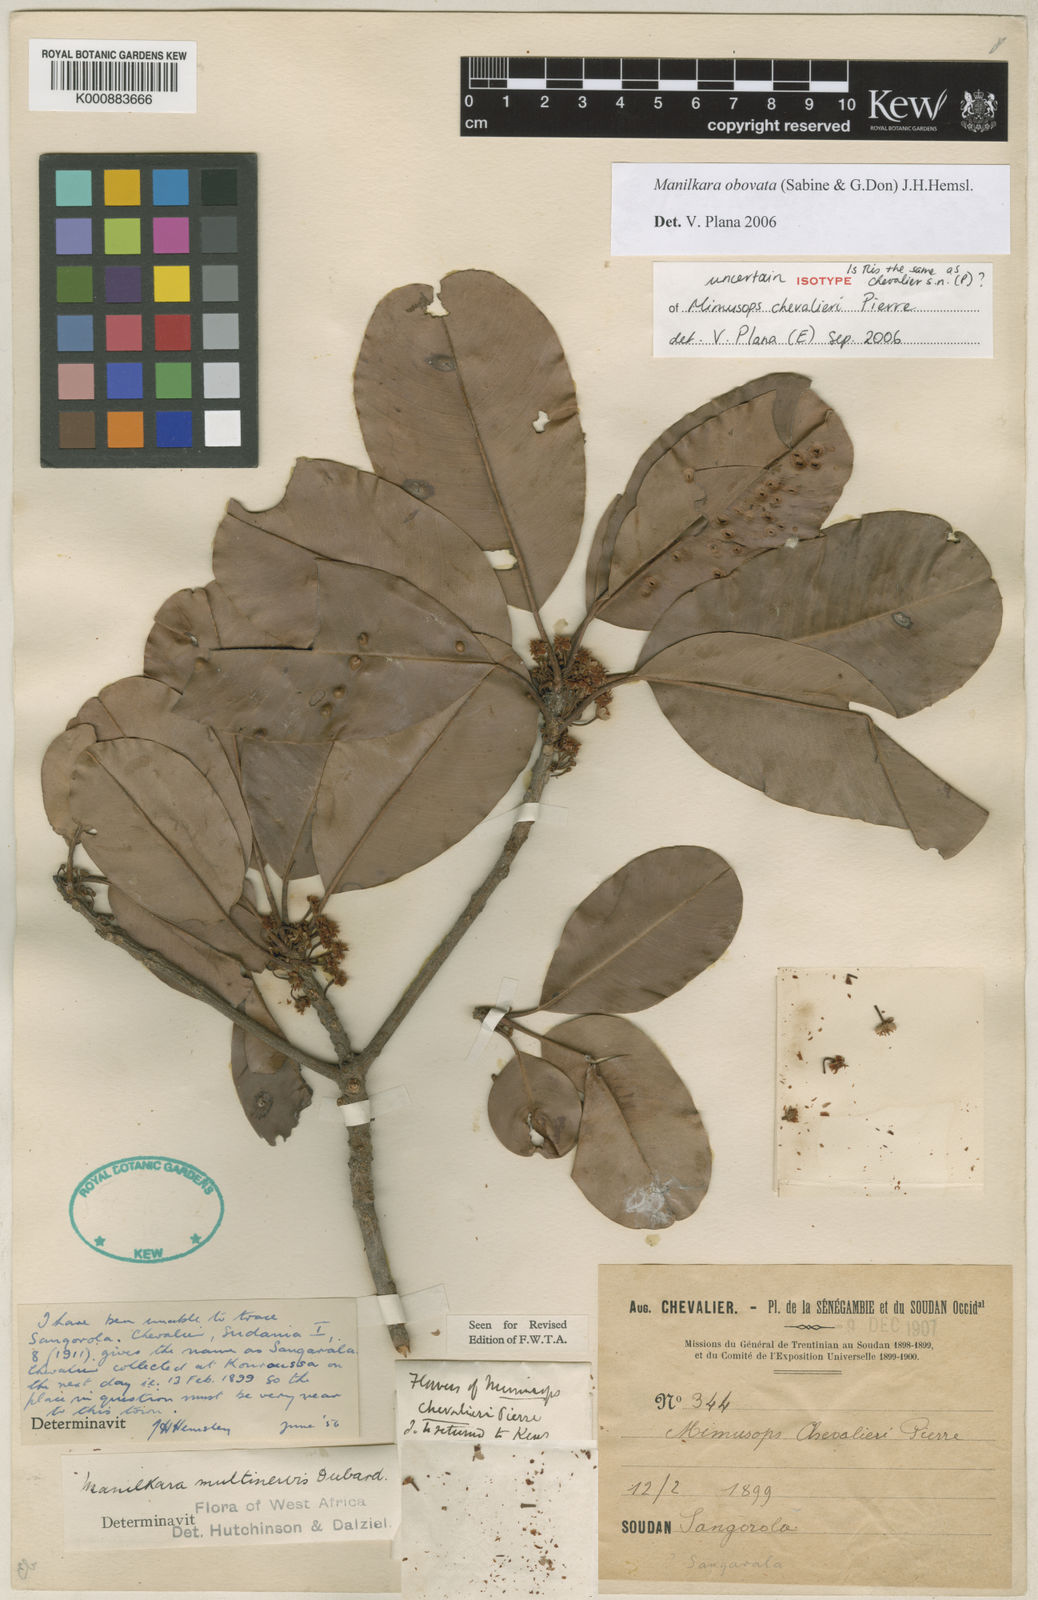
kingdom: Plantae
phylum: Tracheophyta
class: Magnoliopsida
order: Ericales
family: Sapotaceae
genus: Manilkara
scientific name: Manilkara obovata
